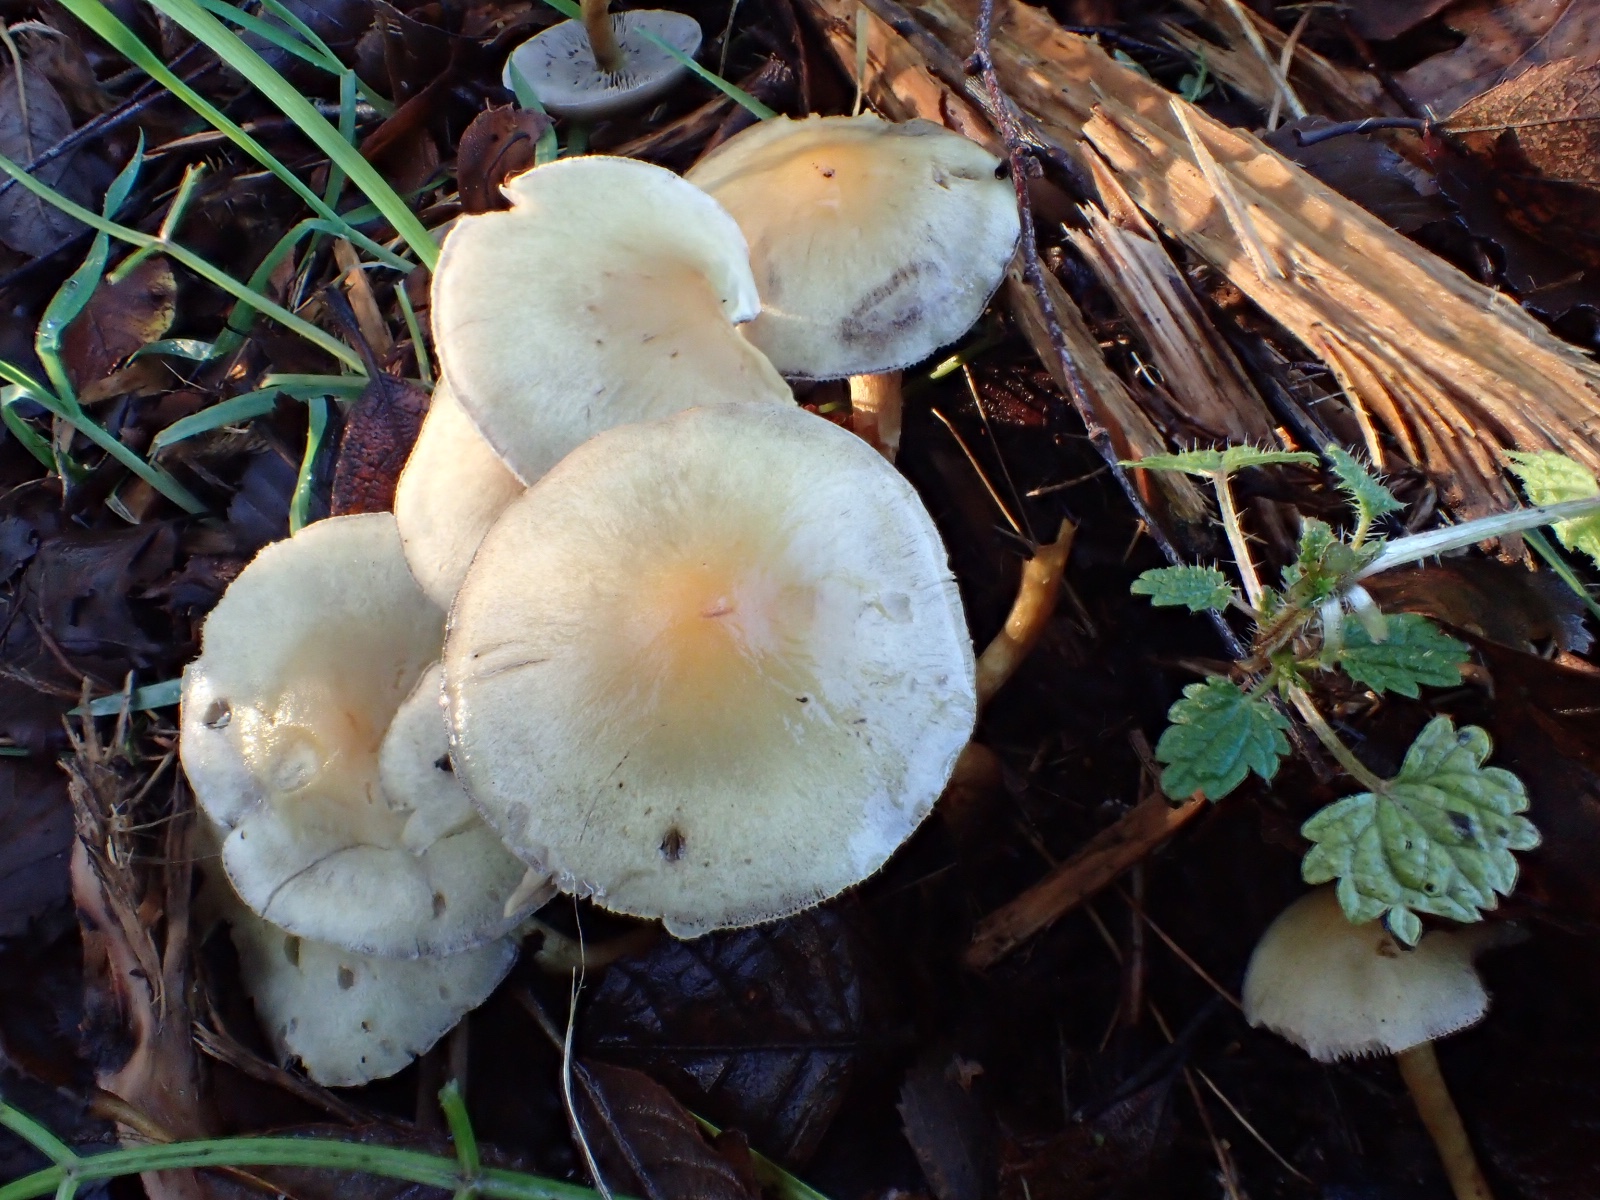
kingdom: Fungi
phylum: Basidiomycota
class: Agaricomycetes
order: Agaricales
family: Strophariaceae
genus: Hypholoma
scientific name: Hypholoma capnoides
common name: gran-svovlhat
